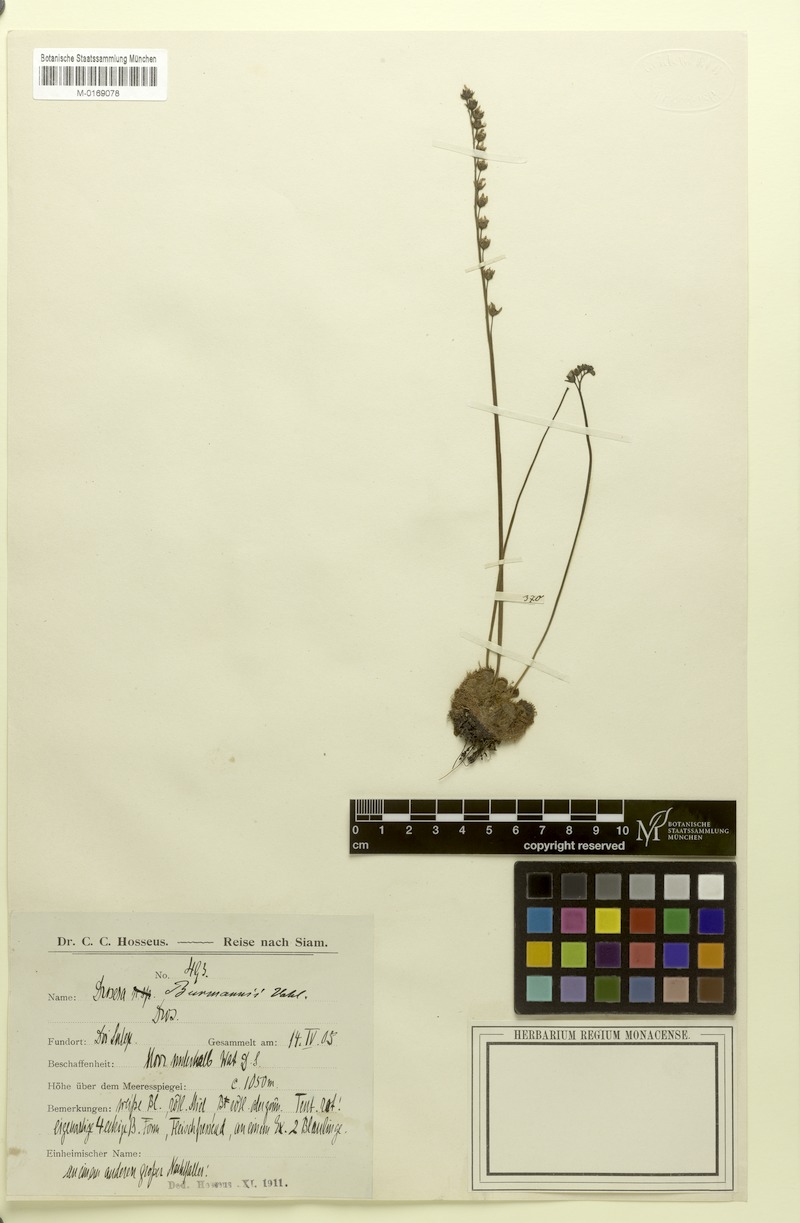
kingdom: Plantae
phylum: Tracheophyta
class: Magnoliopsida
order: Caryophyllales
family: Droseraceae
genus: Drosera
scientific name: Drosera burmannii
